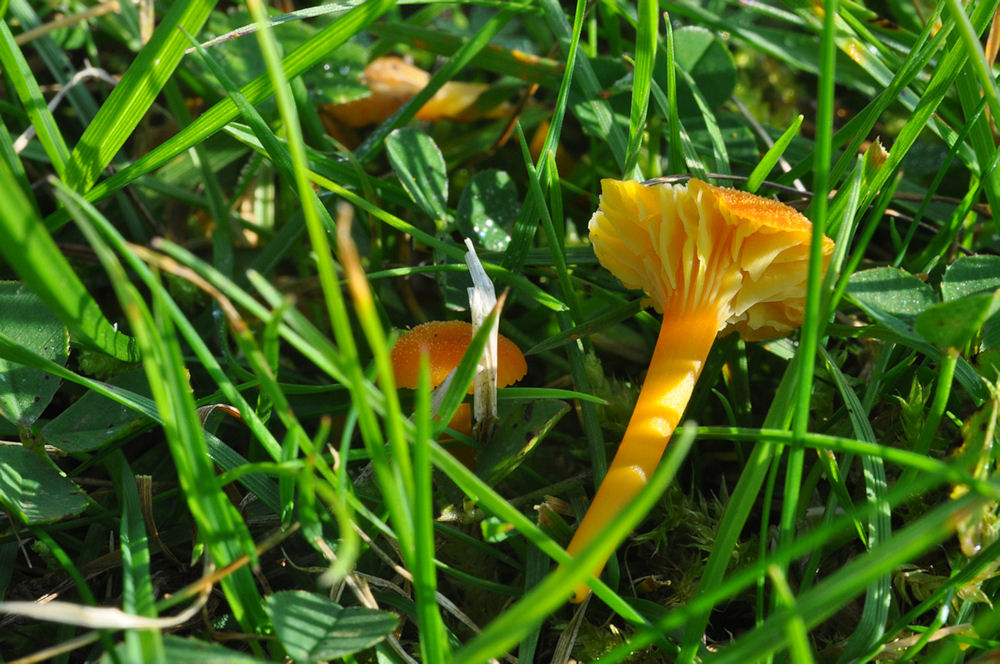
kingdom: Fungi
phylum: Basidiomycota
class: Agaricomycetes
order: Agaricales
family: Hygrophoraceae
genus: Hygrocybe
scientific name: Hygrocybe cantharellus
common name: kantarel-vokshat
